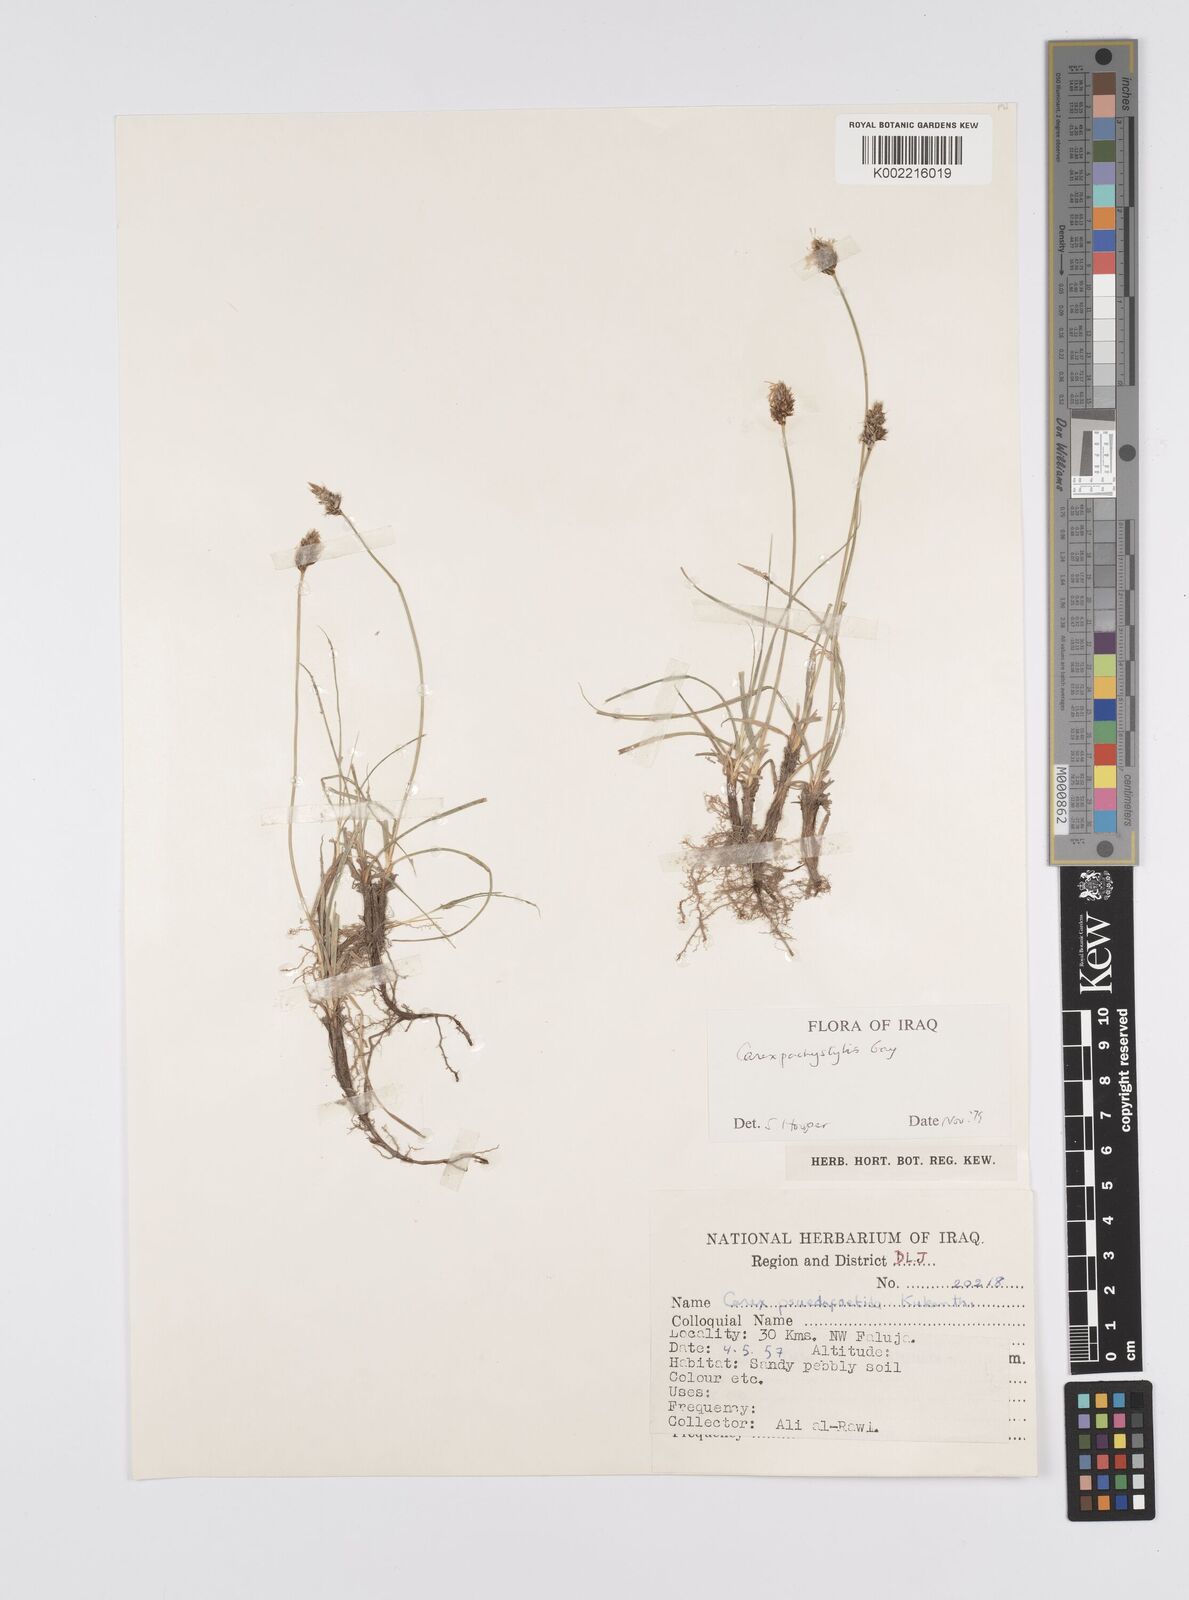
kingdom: Plantae
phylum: Tracheophyta
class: Liliopsida
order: Poales
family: Cyperaceae
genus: Carex
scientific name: Carex pachystylis
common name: Thick-stem sedge
